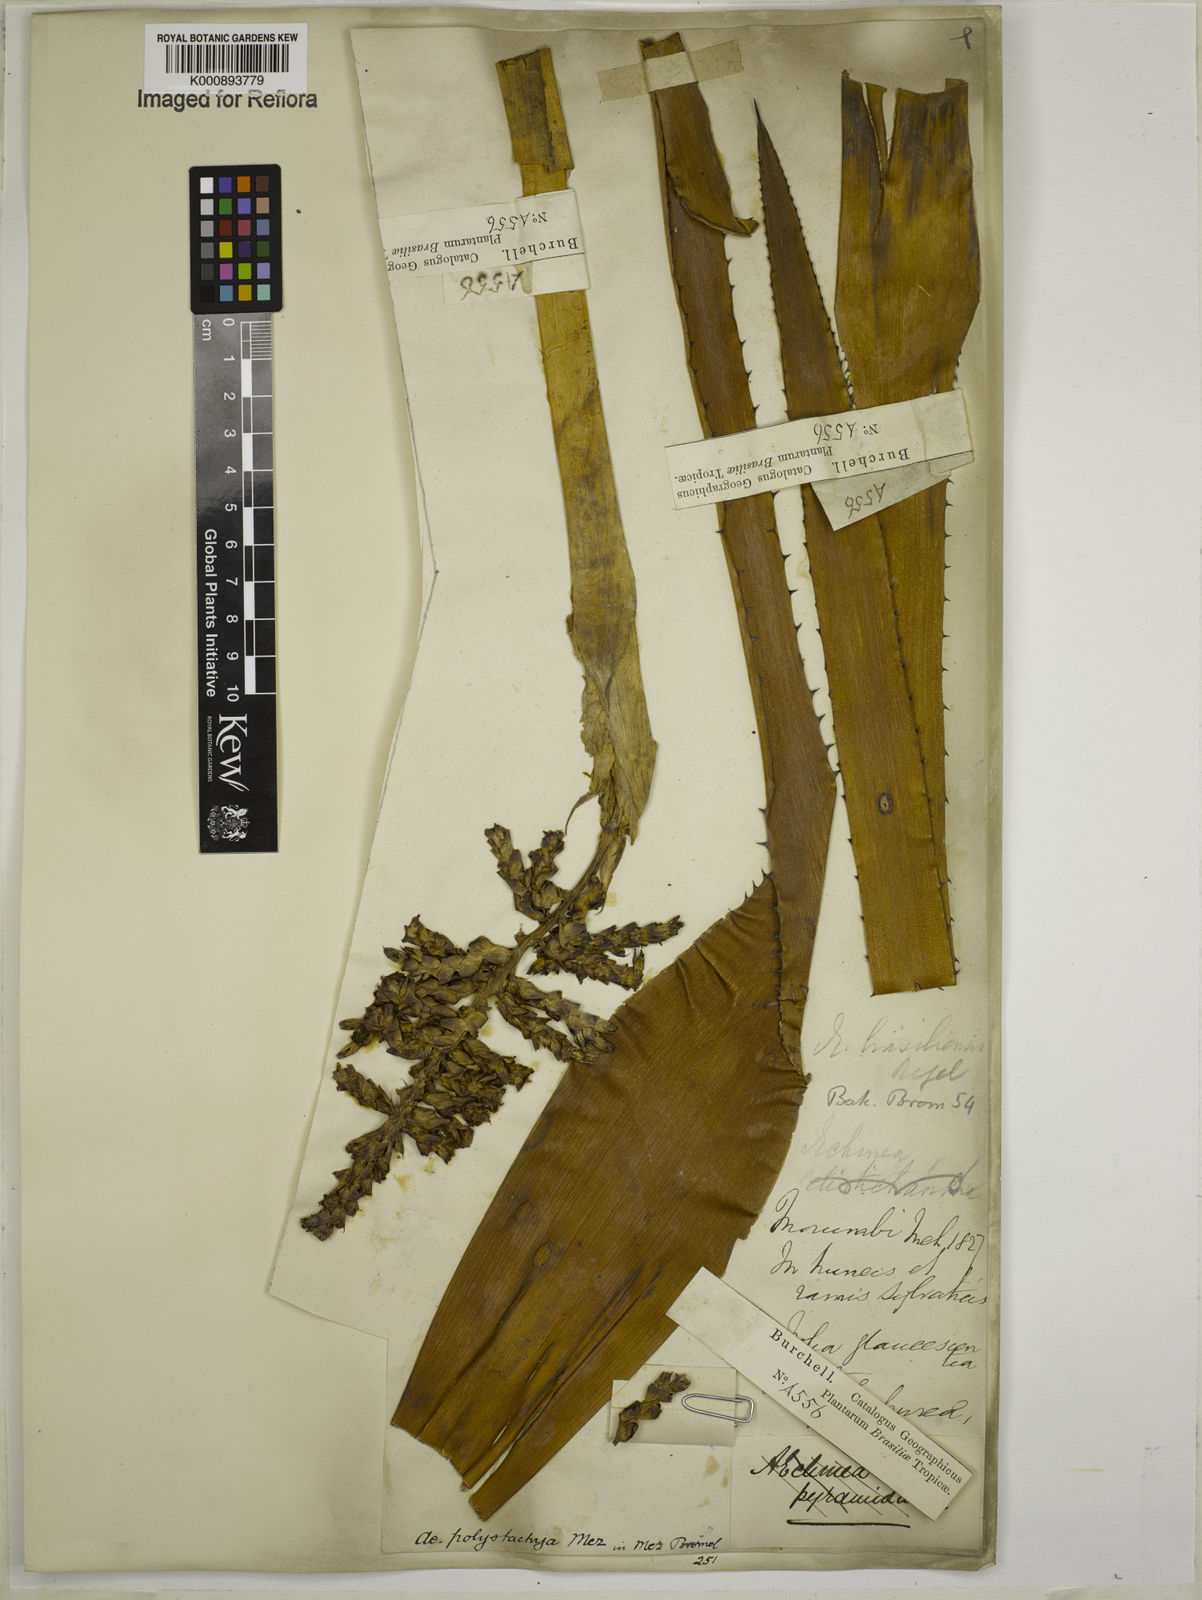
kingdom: Plantae
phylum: Tracheophyta
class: Liliopsida
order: Poales
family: Bromeliaceae
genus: Aechmea
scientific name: Aechmea distichantha
